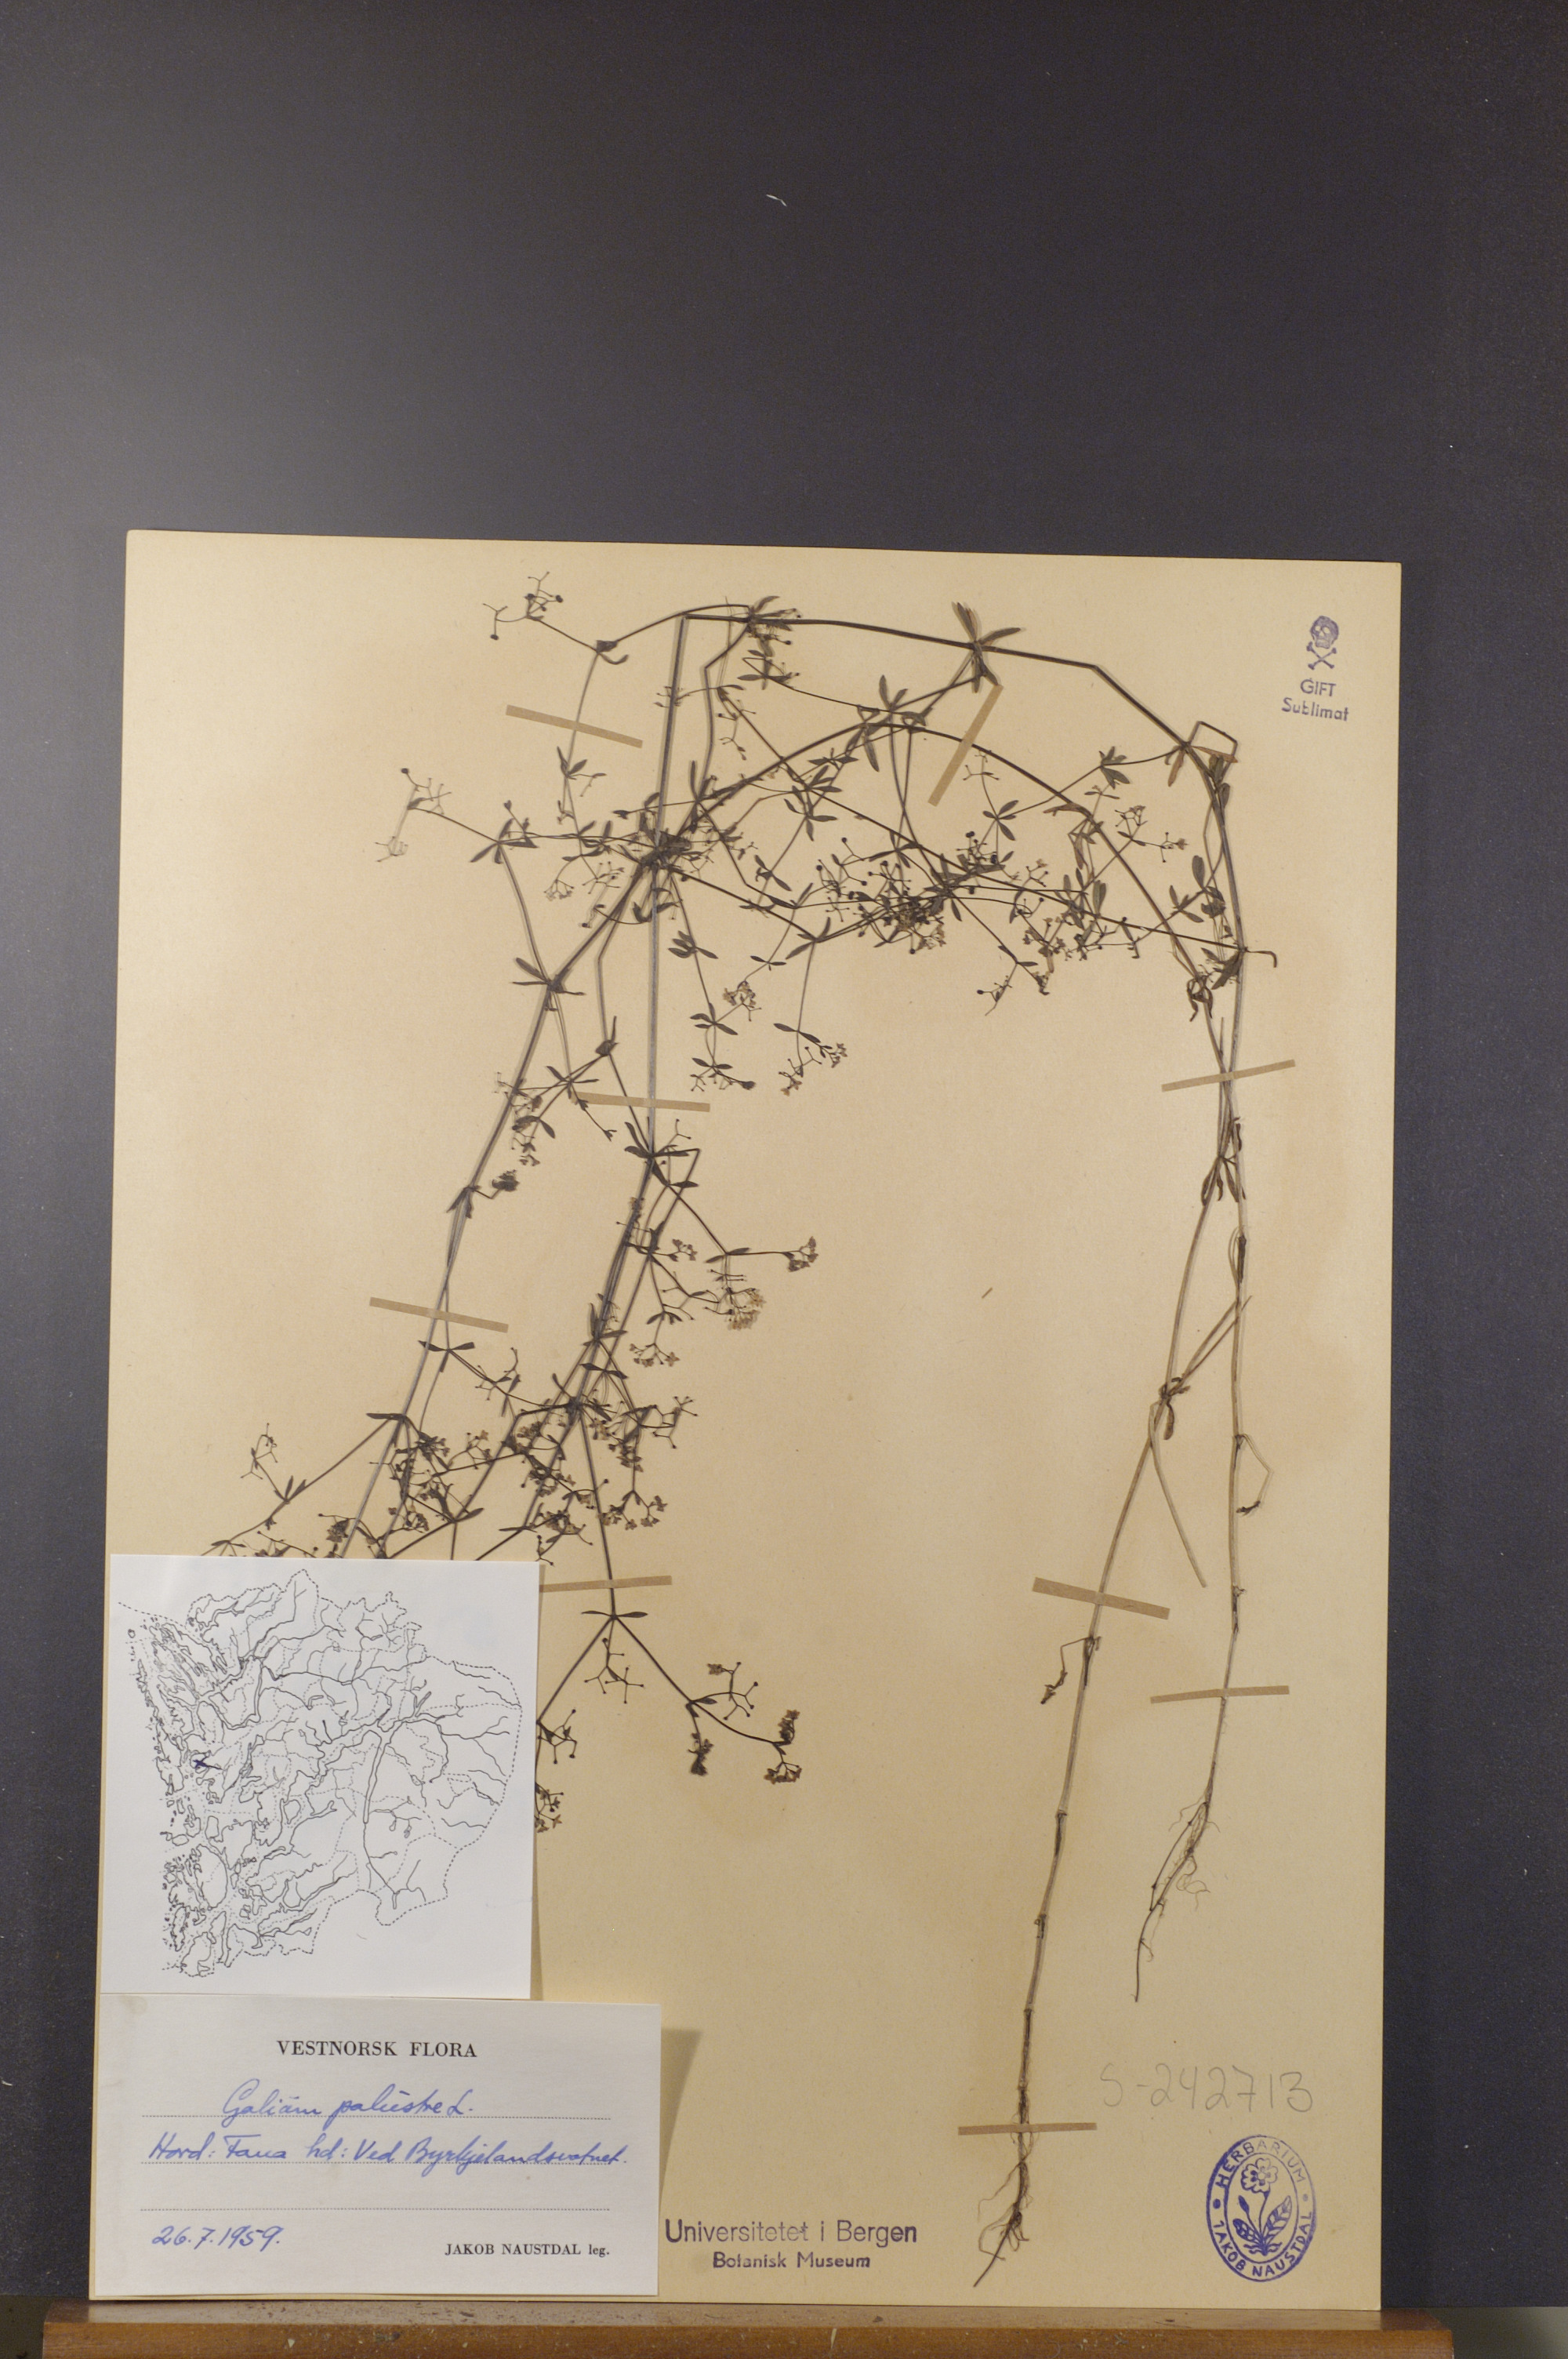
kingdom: Plantae
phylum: Tracheophyta
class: Magnoliopsida
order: Gentianales
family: Rubiaceae
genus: Galium
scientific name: Galium palustre
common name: Common marsh-bedstraw
